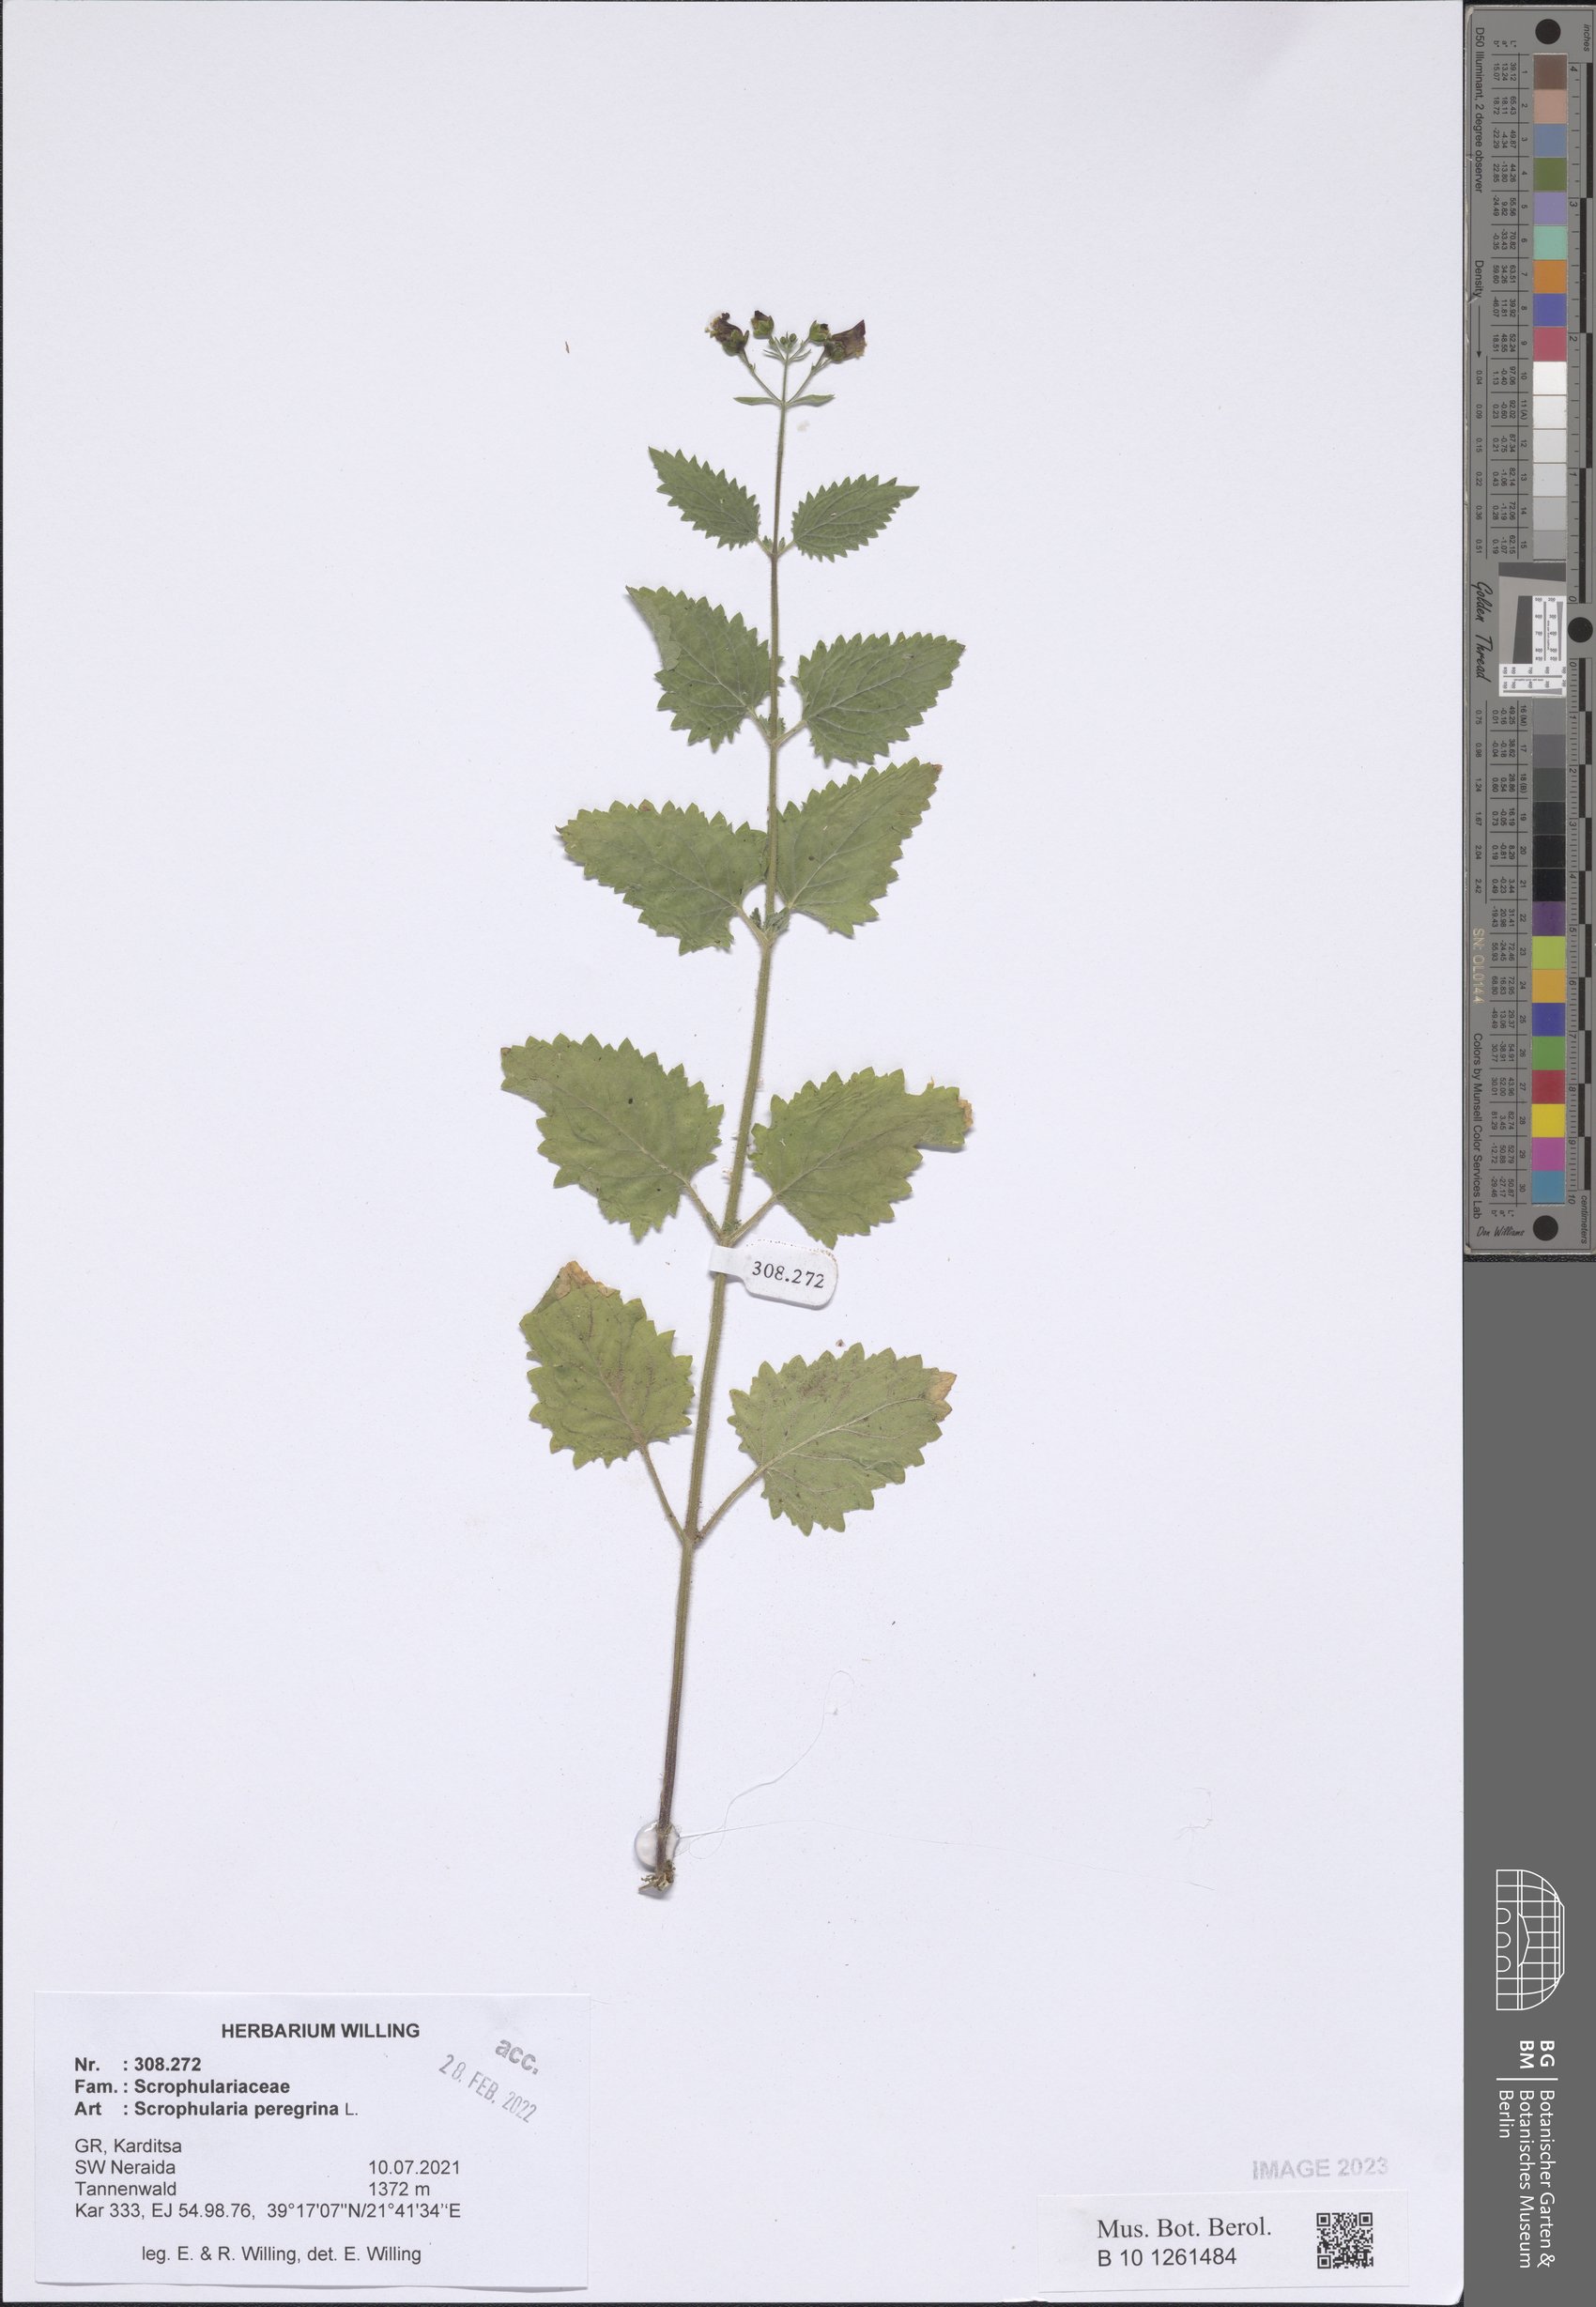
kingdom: Plantae
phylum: Tracheophyta
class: Magnoliopsida
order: Lamiales
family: Scrophulariaceae
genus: Scrophularia
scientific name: Scrophularia peregrina
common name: Mediterranean figwort
